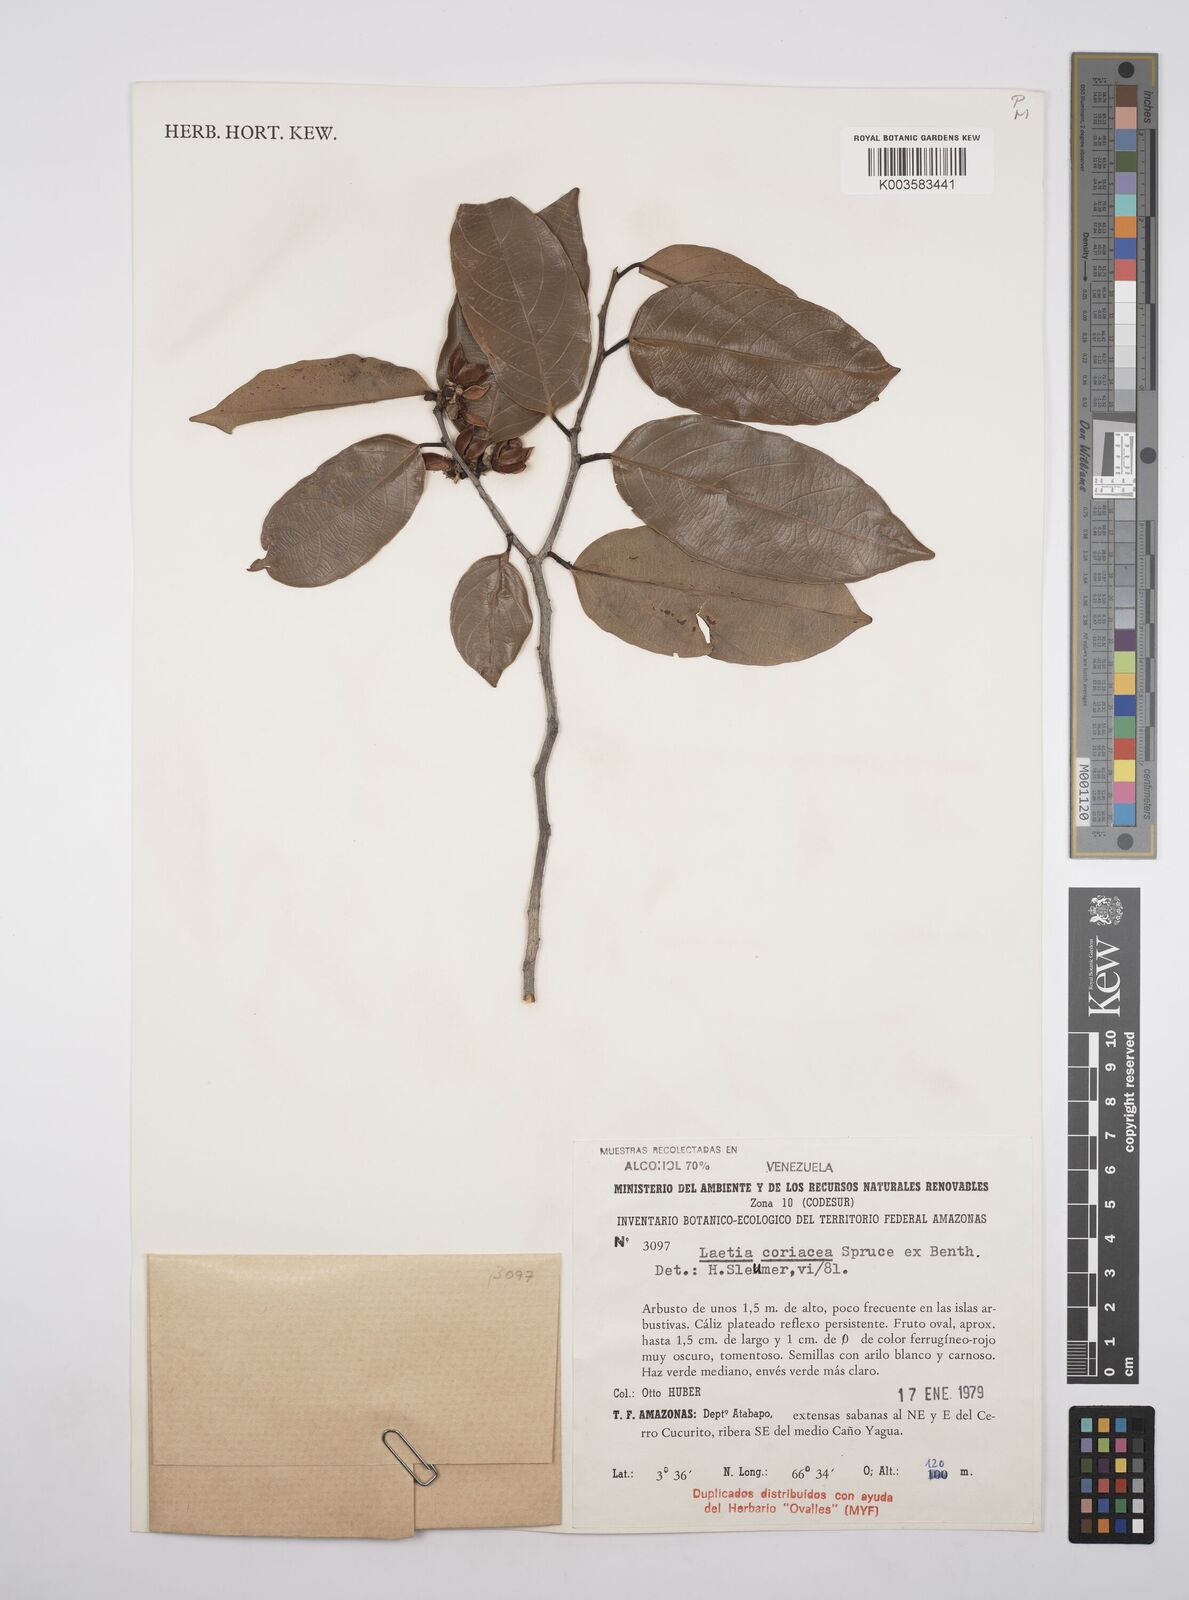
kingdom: Plantae
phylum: Tracheophyta
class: Magnoliopsida
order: Malpighiales
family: Salicaceae
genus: Irenodendron
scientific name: Irenodendron coriaceum
